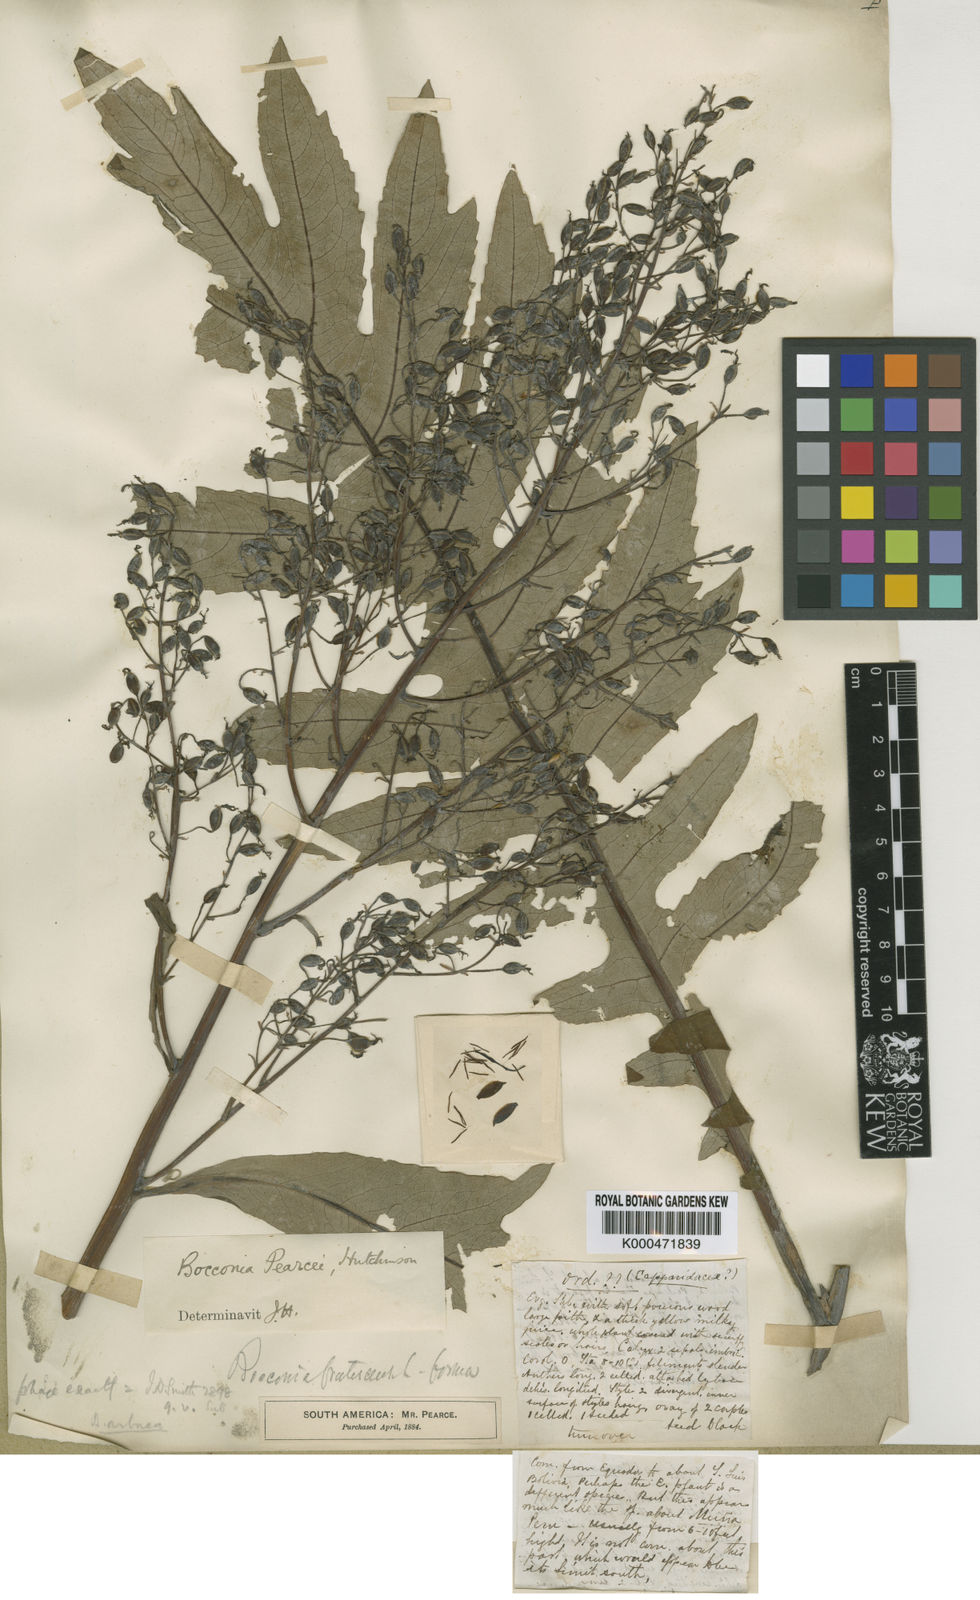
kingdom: Plantae
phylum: Tracheophyta
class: Magnoliopsida
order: Ranunculales
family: Papaveraceae
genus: Bocconia
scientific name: Bocconia integrifolia
